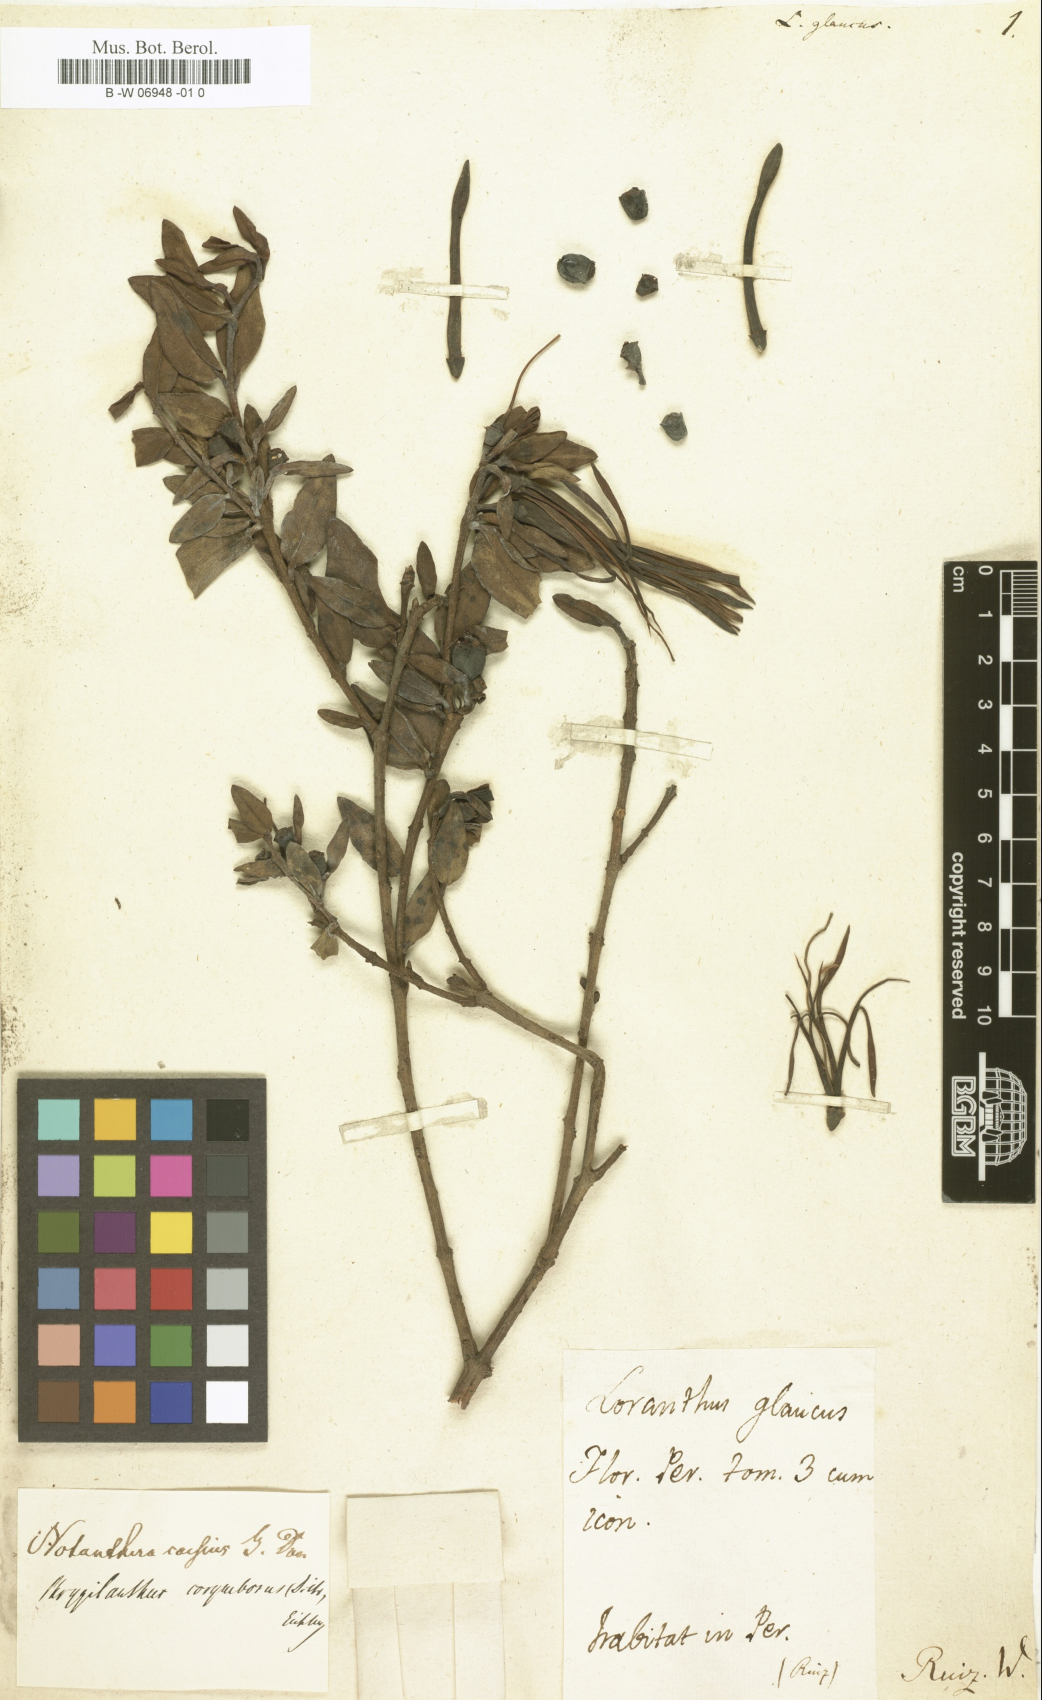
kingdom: Plantae
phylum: Tracheophyta
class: Magnoliopsida
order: Santalales
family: Loranthaceae
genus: Loranthus
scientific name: Loranthus glaucus
